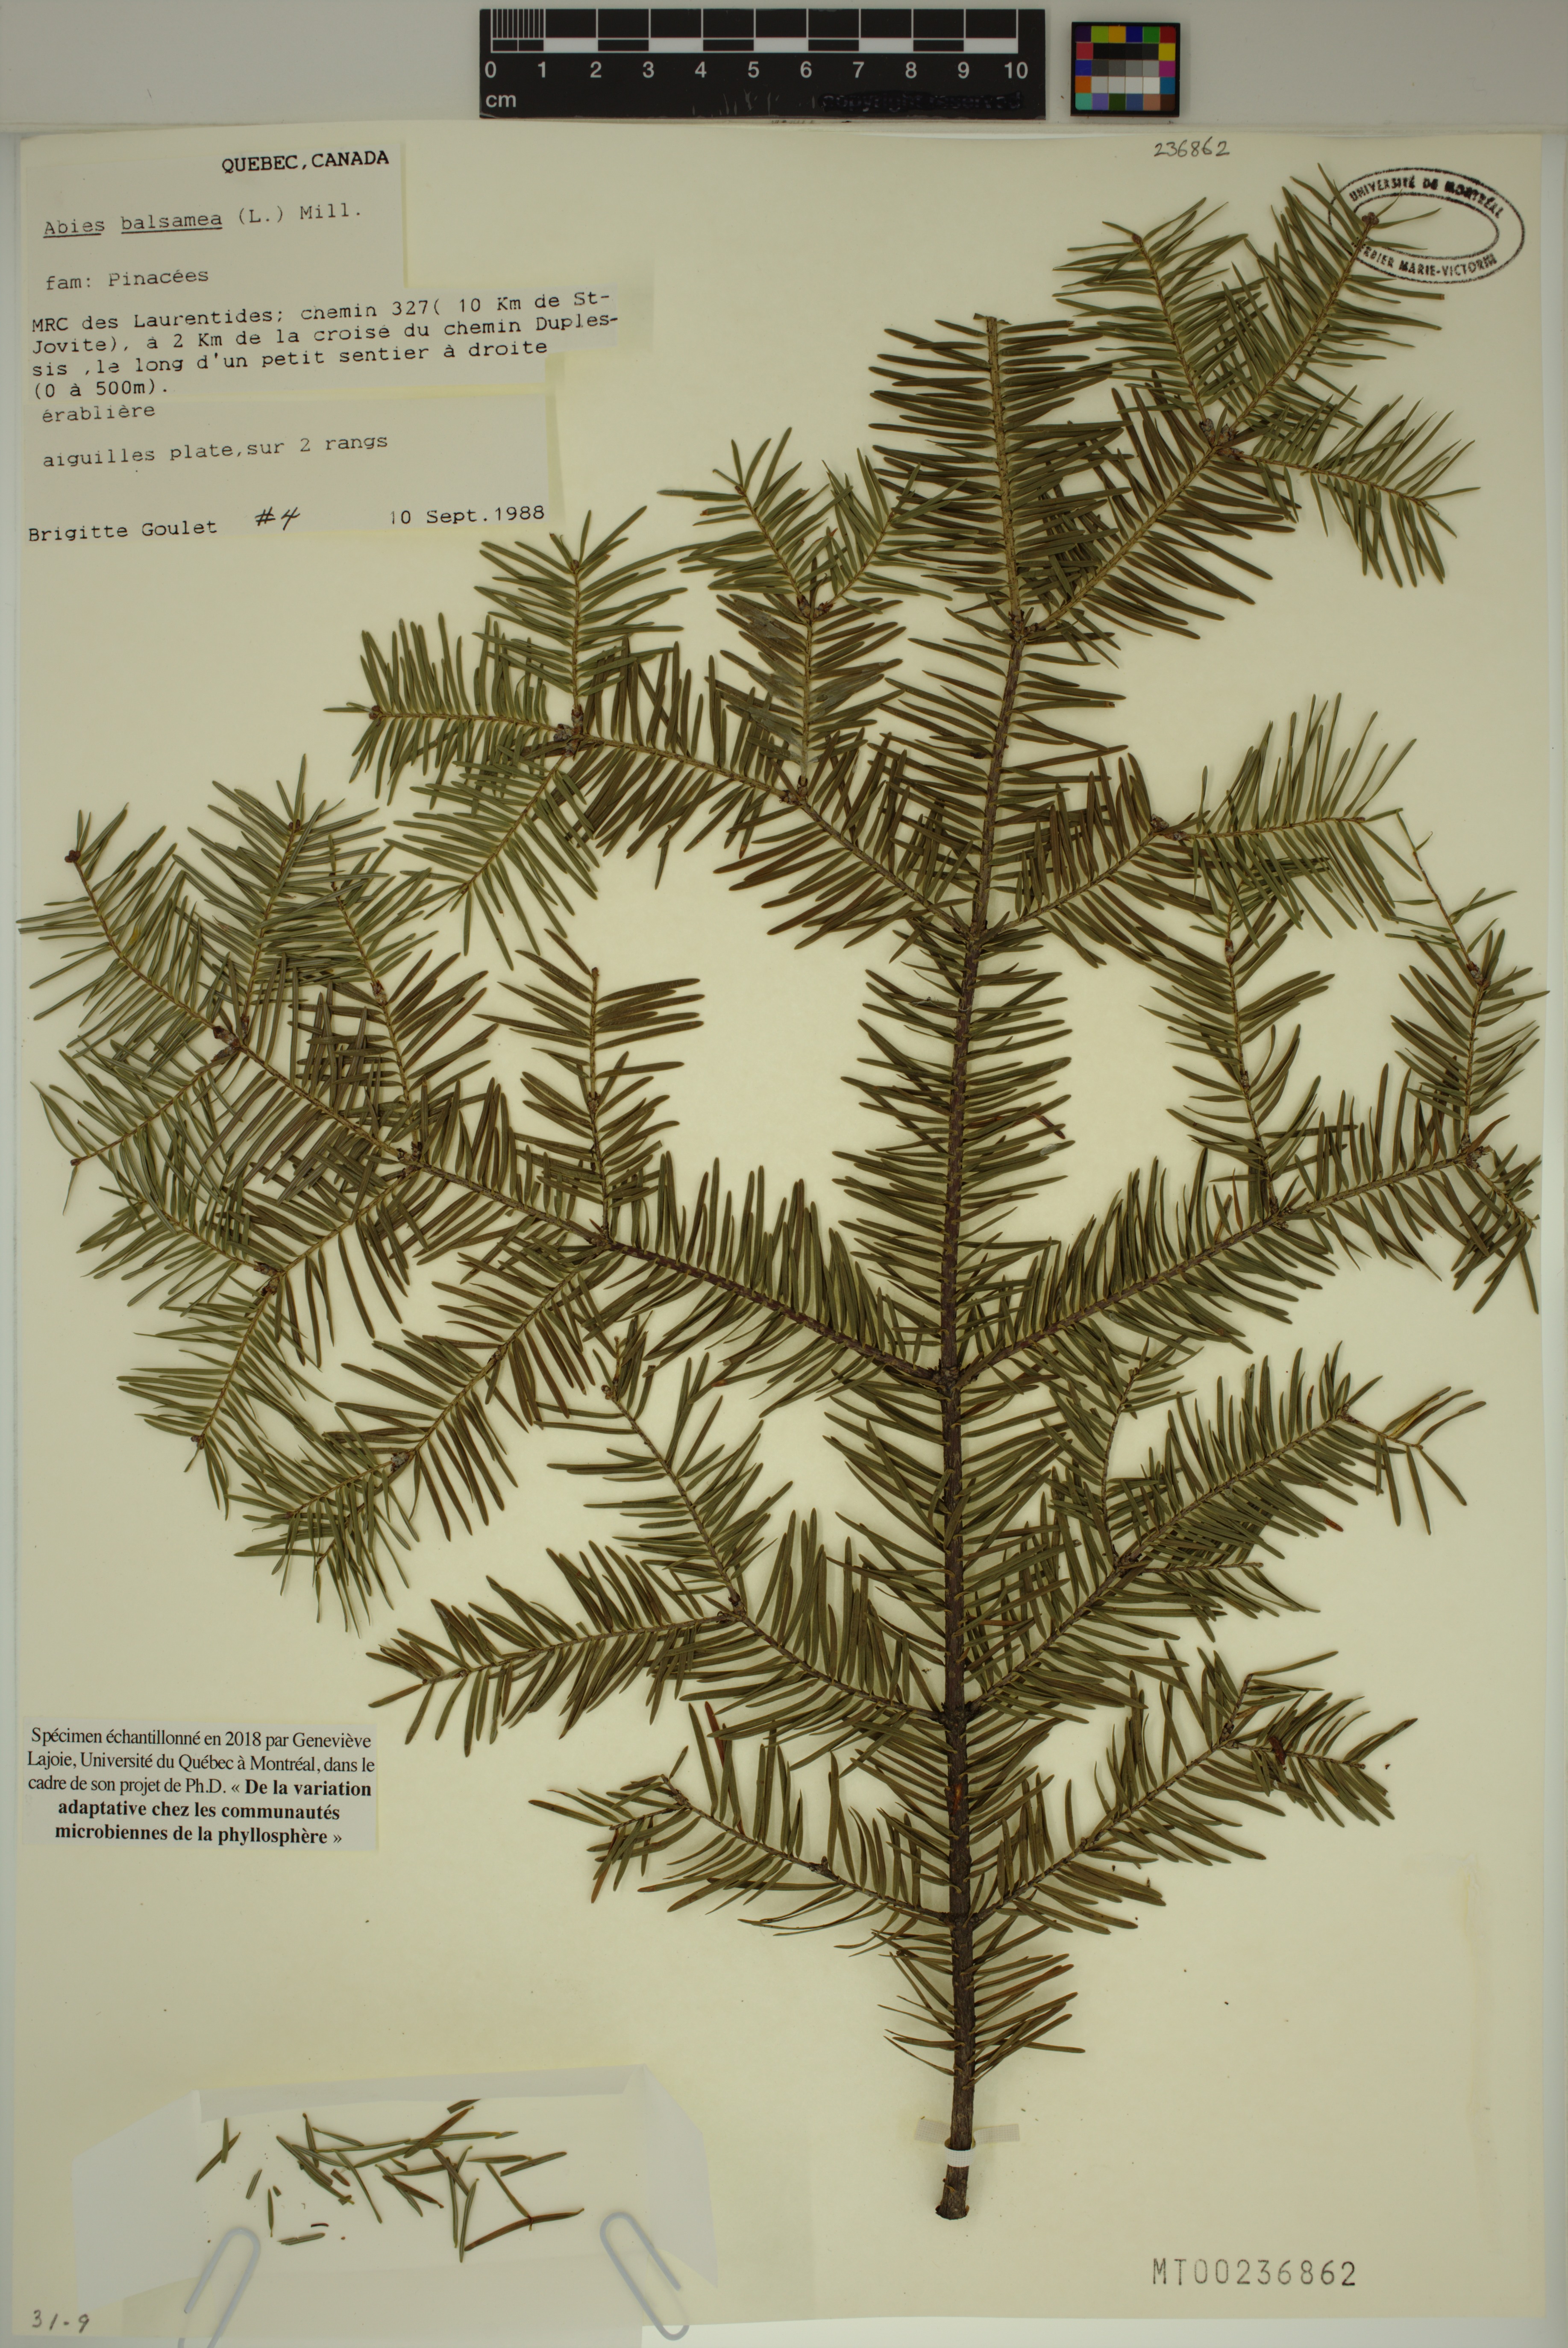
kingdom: Plantae
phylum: Tracheophyta
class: Pinopsida
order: Pinales
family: Pinaceae
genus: Abies
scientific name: Abies balsamea
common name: Balsam fir
